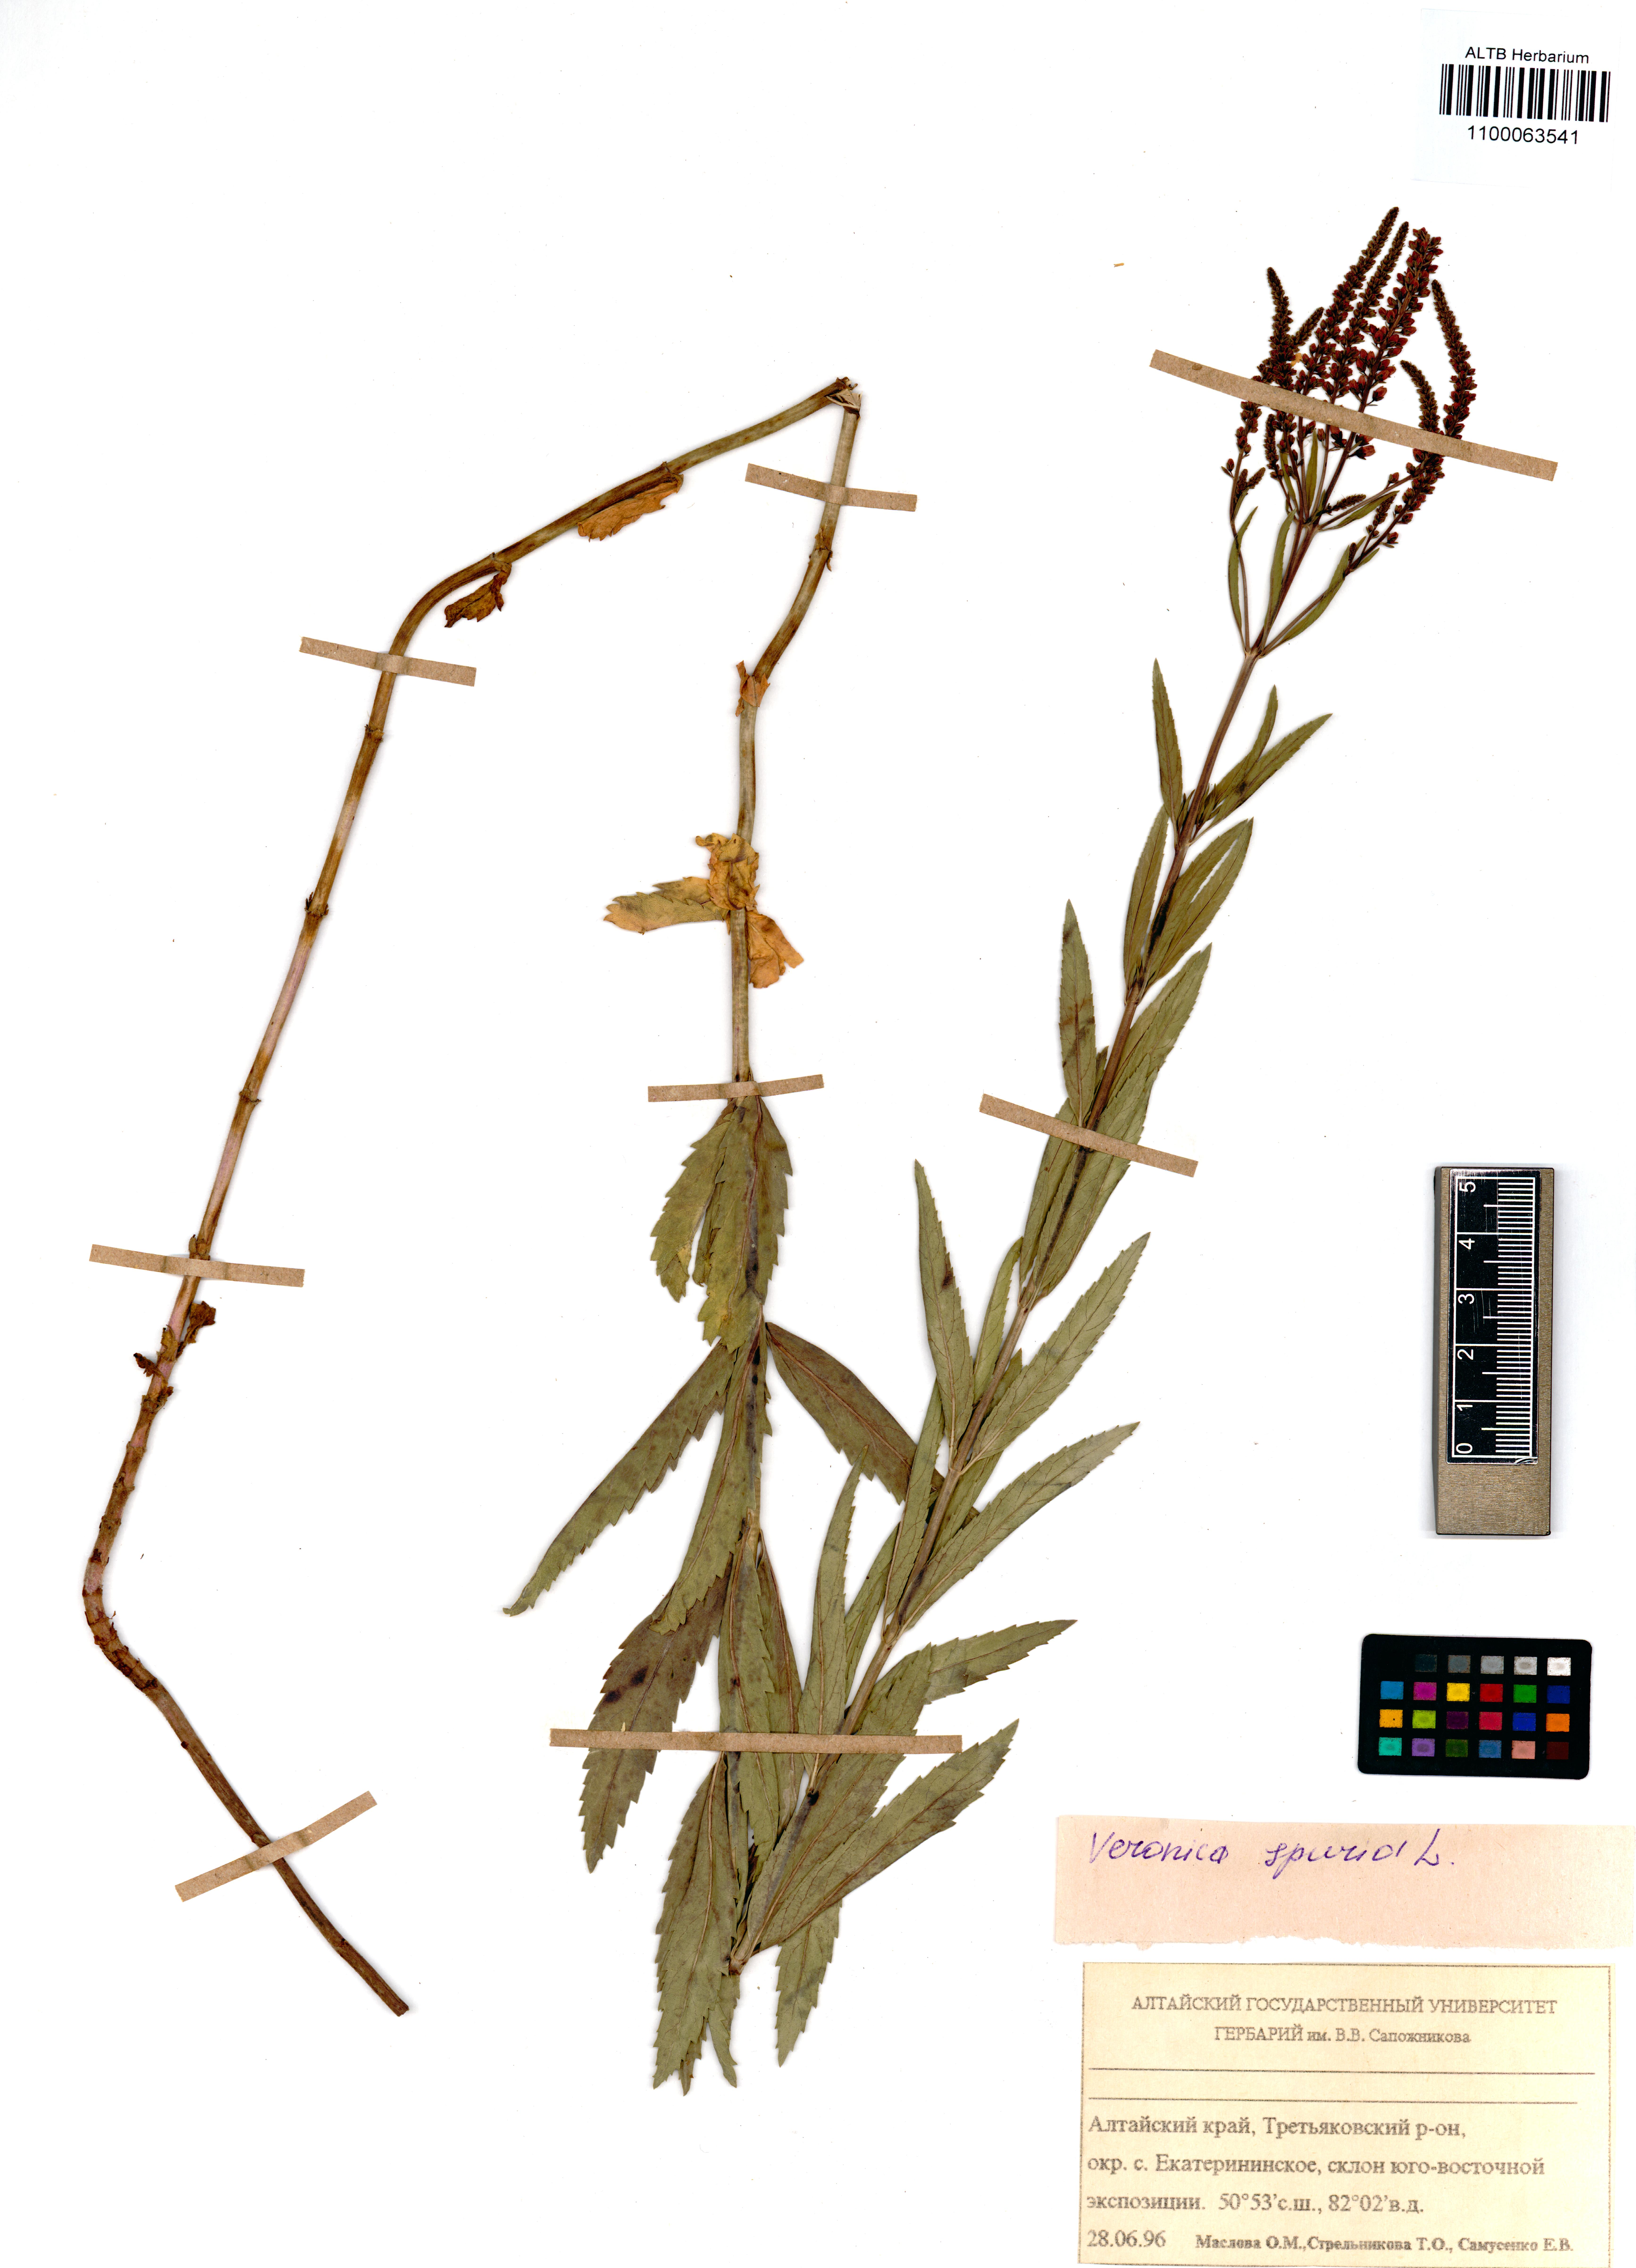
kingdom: Plantae
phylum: Tracheophyta
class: Magnoliopsida
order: Lamiales
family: Plantaginaceae
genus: Veronica
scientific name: Veronica spuria
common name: Bastard speedwell
